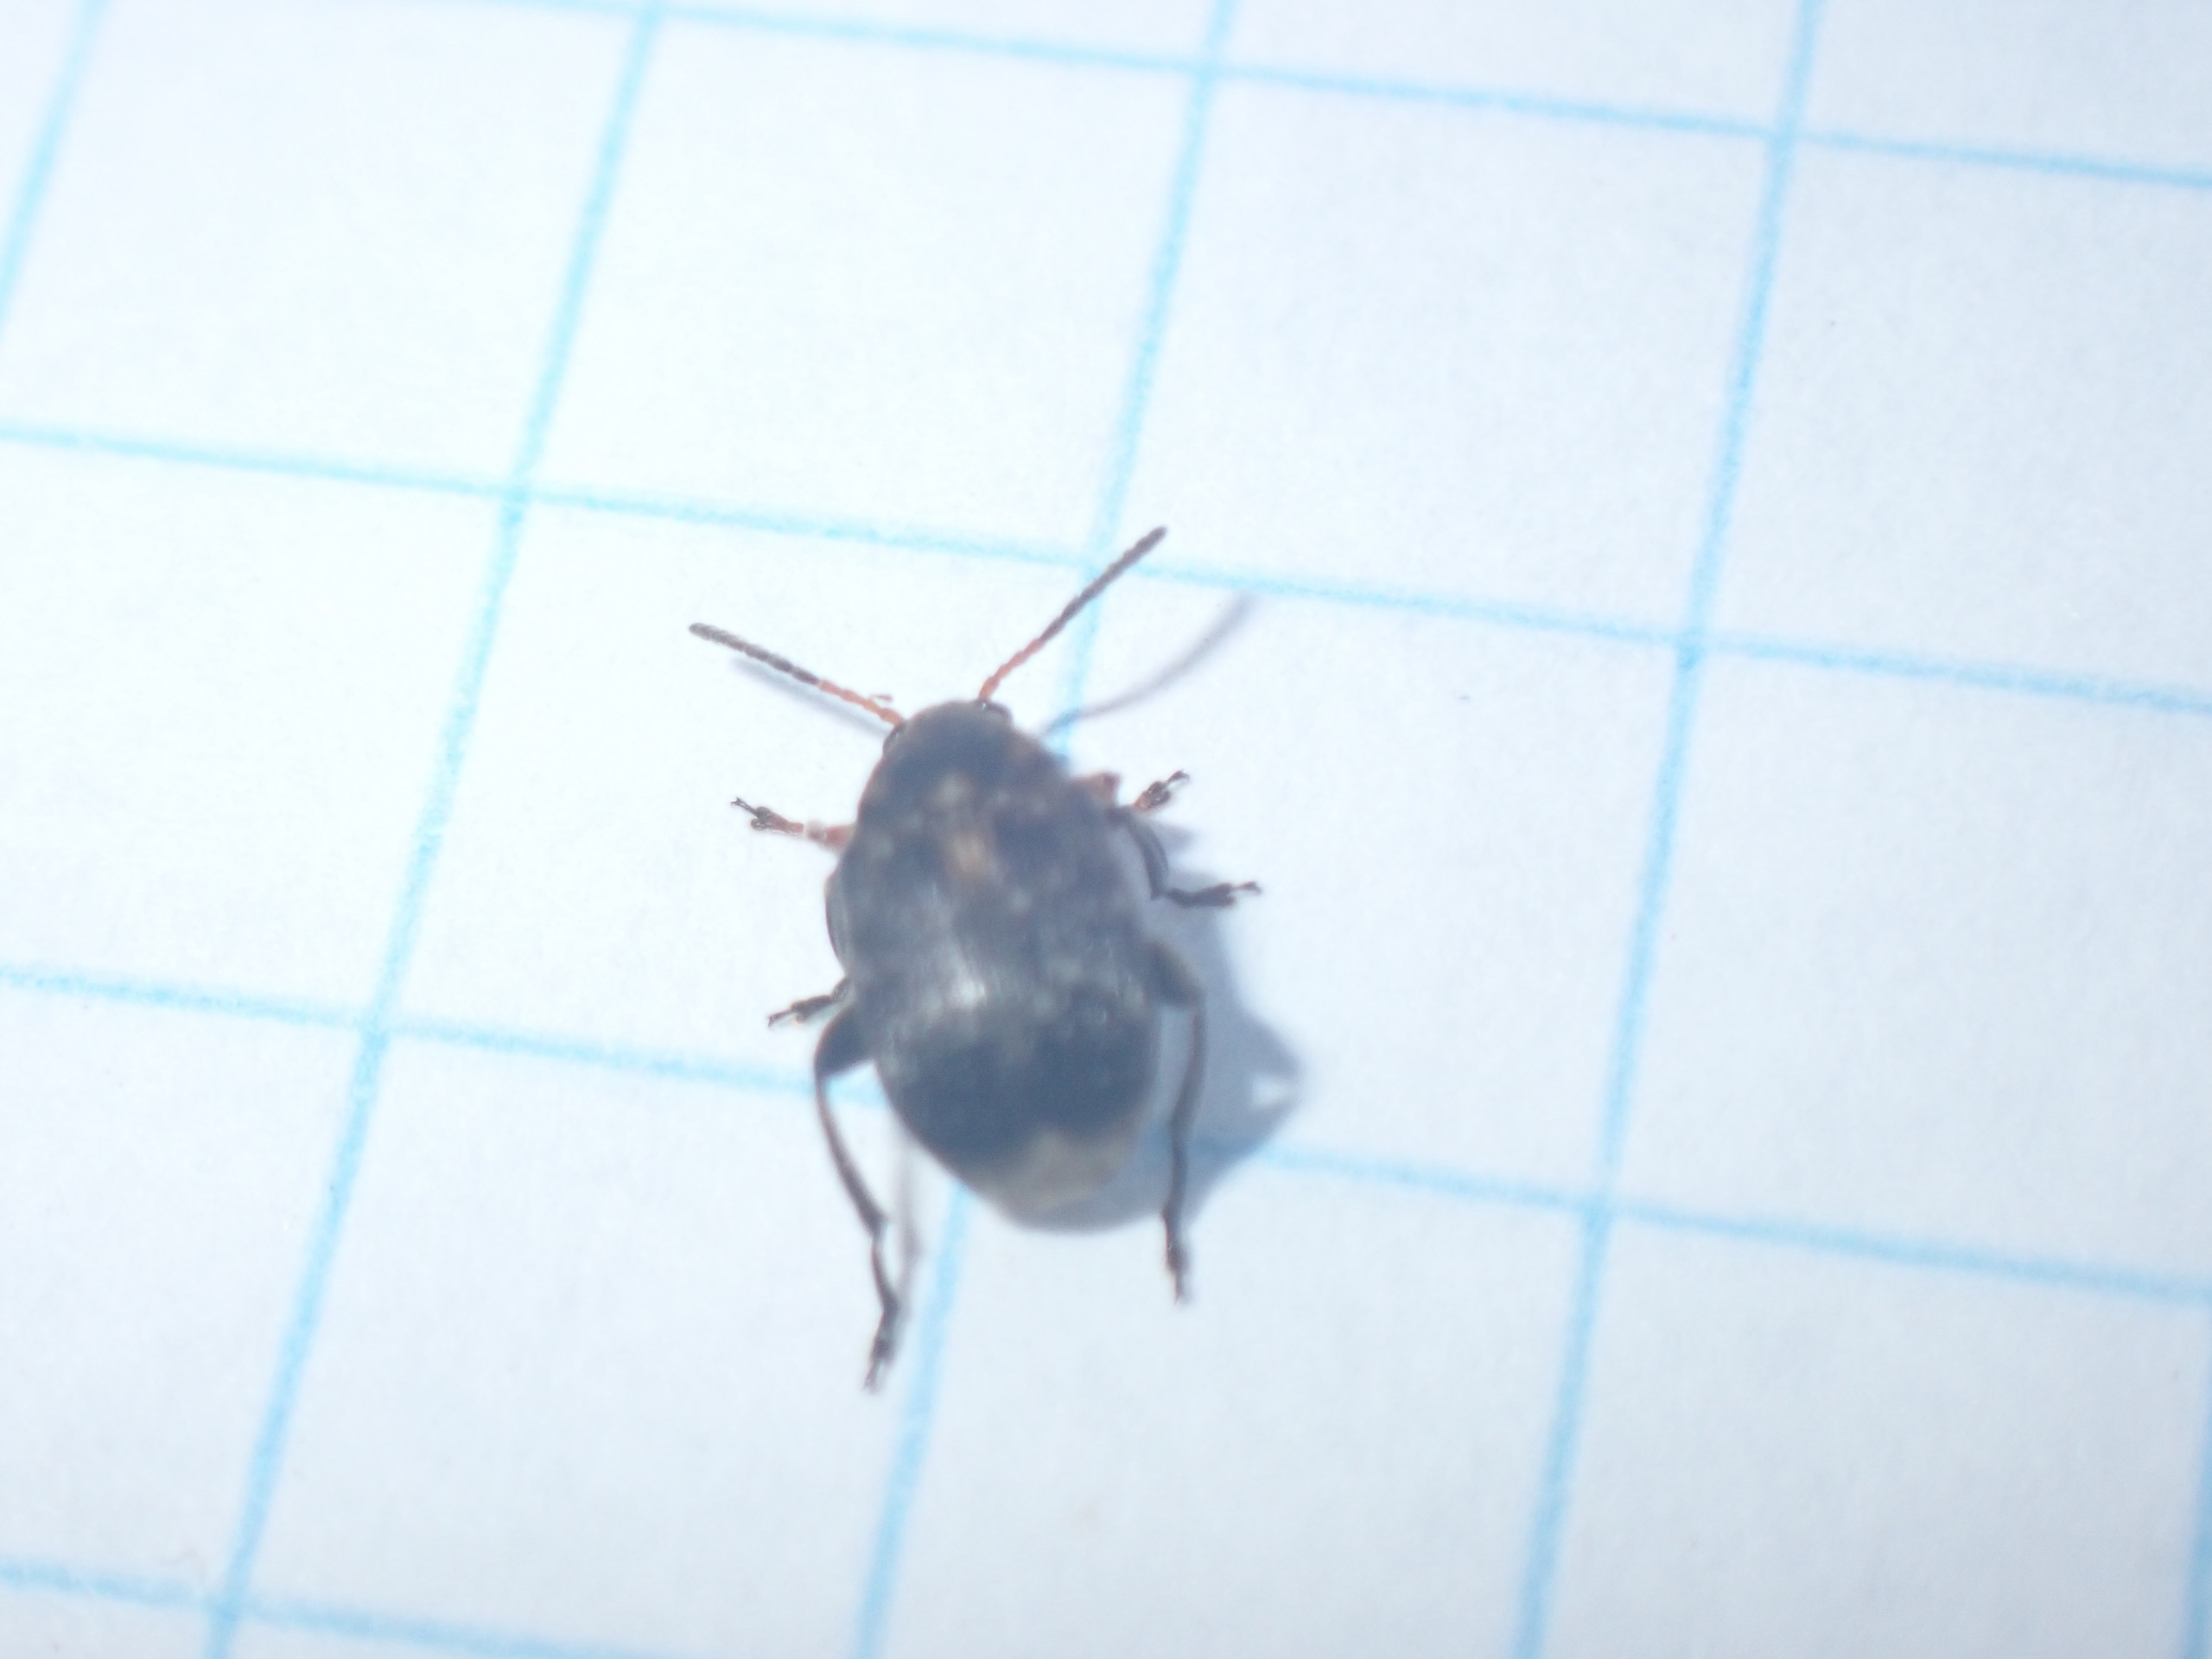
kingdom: Animalia
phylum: Arthropoda
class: Insecta
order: Coleoptera
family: Chrysomelidae
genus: Bruchus
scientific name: Bruchus rufimanus
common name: Hestebønnebille
